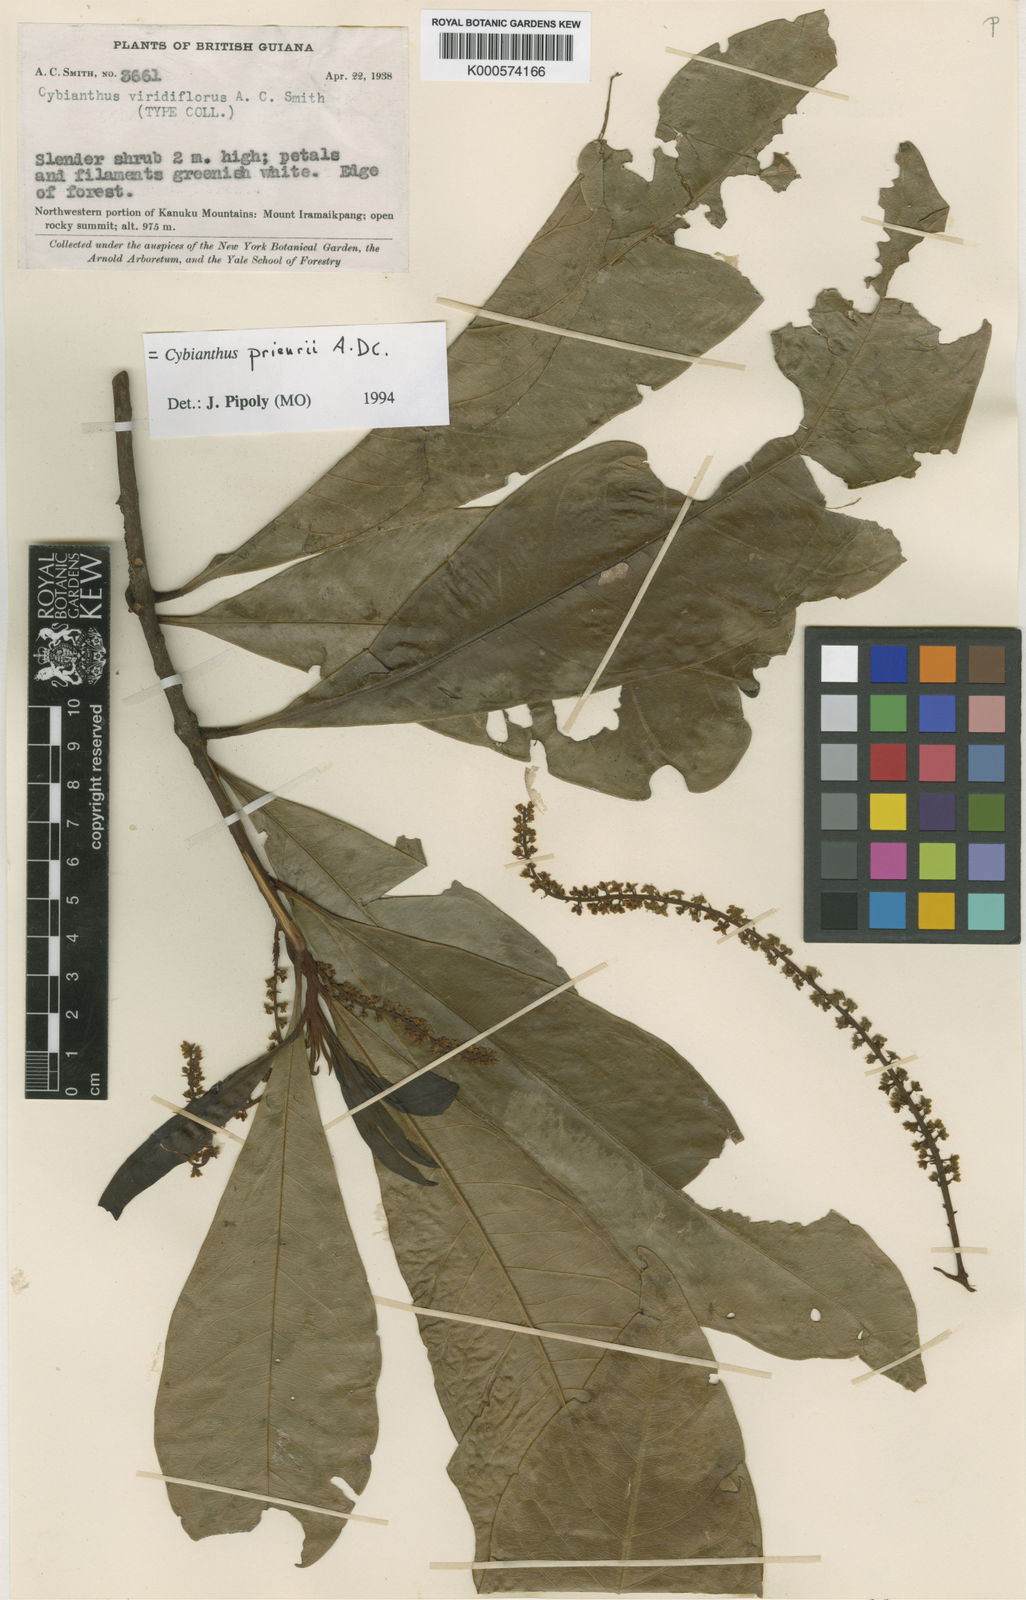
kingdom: Plantae
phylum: Tracheophyta
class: Magnoliopsida
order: Ericales
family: Primulaceae
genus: Cybianthus
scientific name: Cybianthus prieurii
